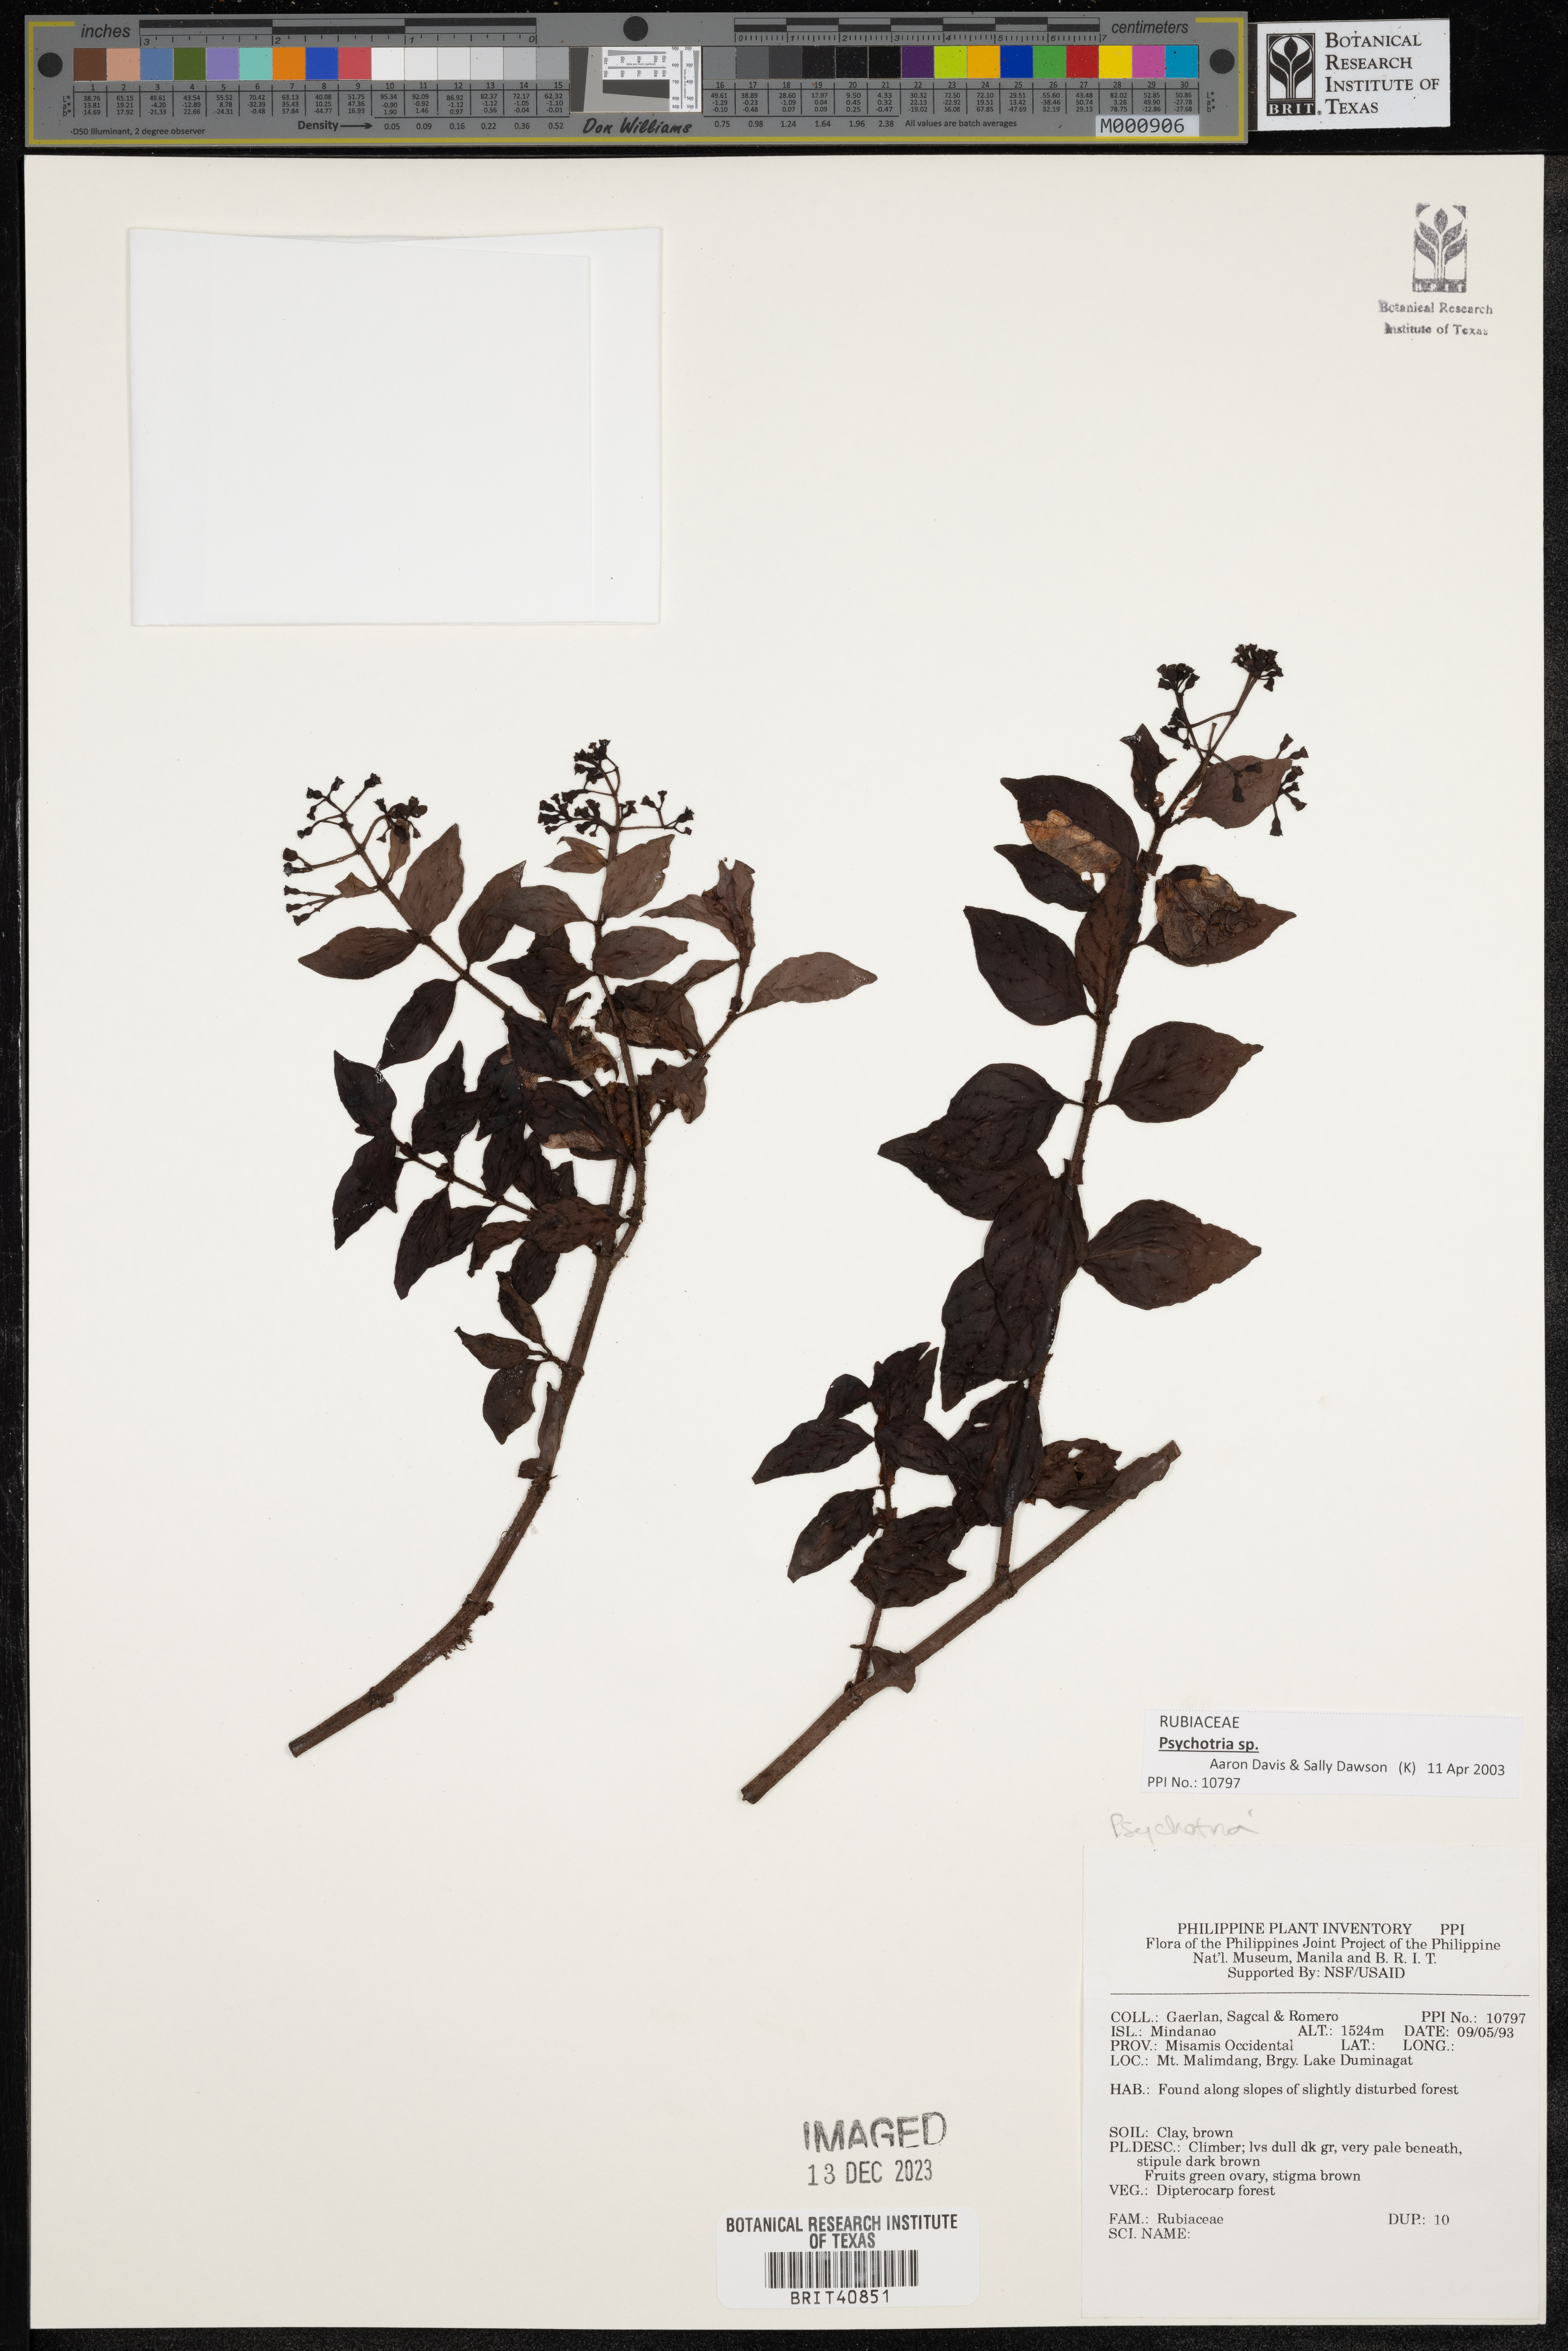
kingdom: Plantae
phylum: Tracheophyta
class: Magnoliopsida
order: Gentianales
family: Rubiaceae
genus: Psychotria
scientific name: Psychotria
